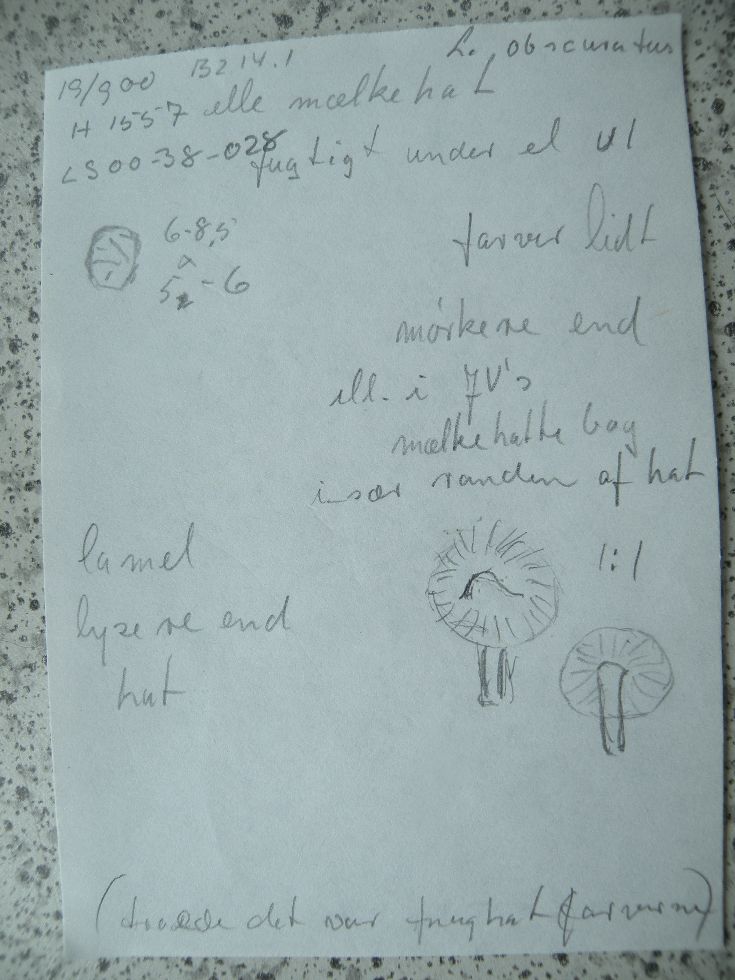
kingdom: Fungi
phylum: Basidiomycota
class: Agaricomycetes
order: Russulales
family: Russulaceae
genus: Lactarius
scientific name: Lactarius obscuratus
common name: elle-mælkehat
